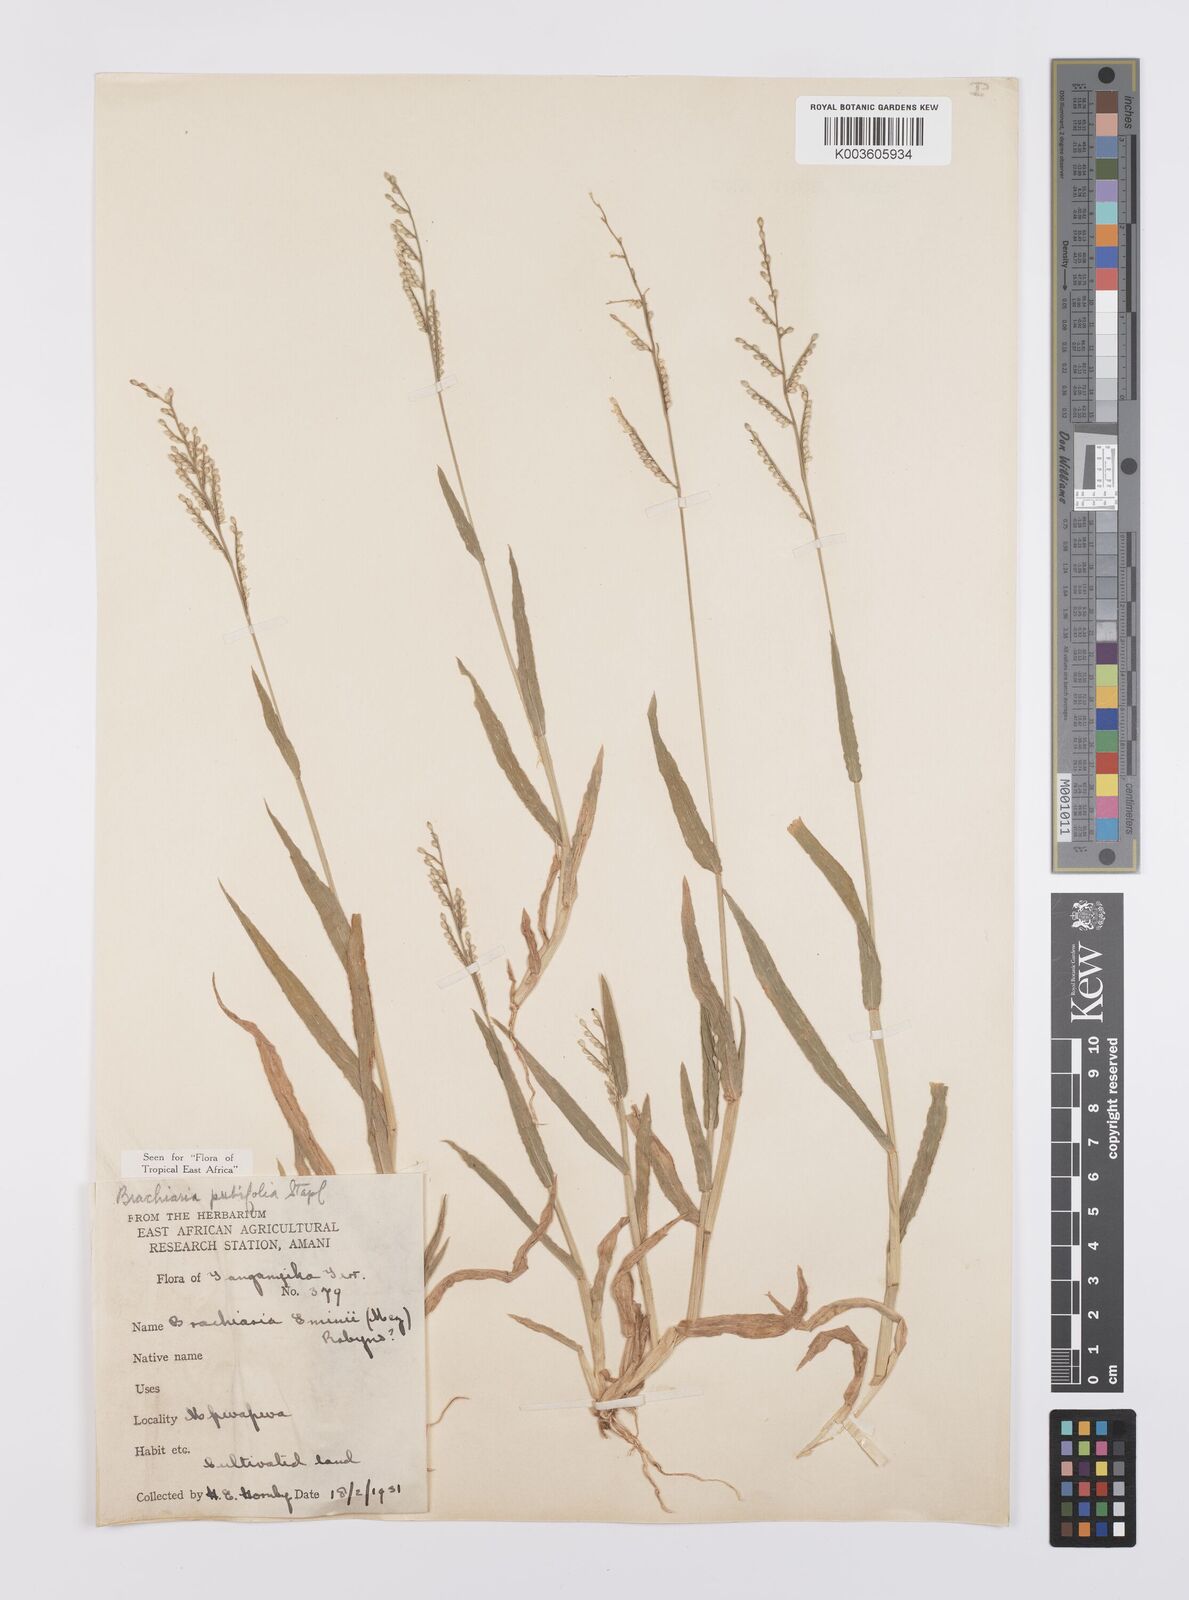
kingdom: Plantae
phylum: Tracheophyta
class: Liliopsida
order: Poales
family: Poaceae
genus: Urochloa
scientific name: Urochloa xantholeuca
